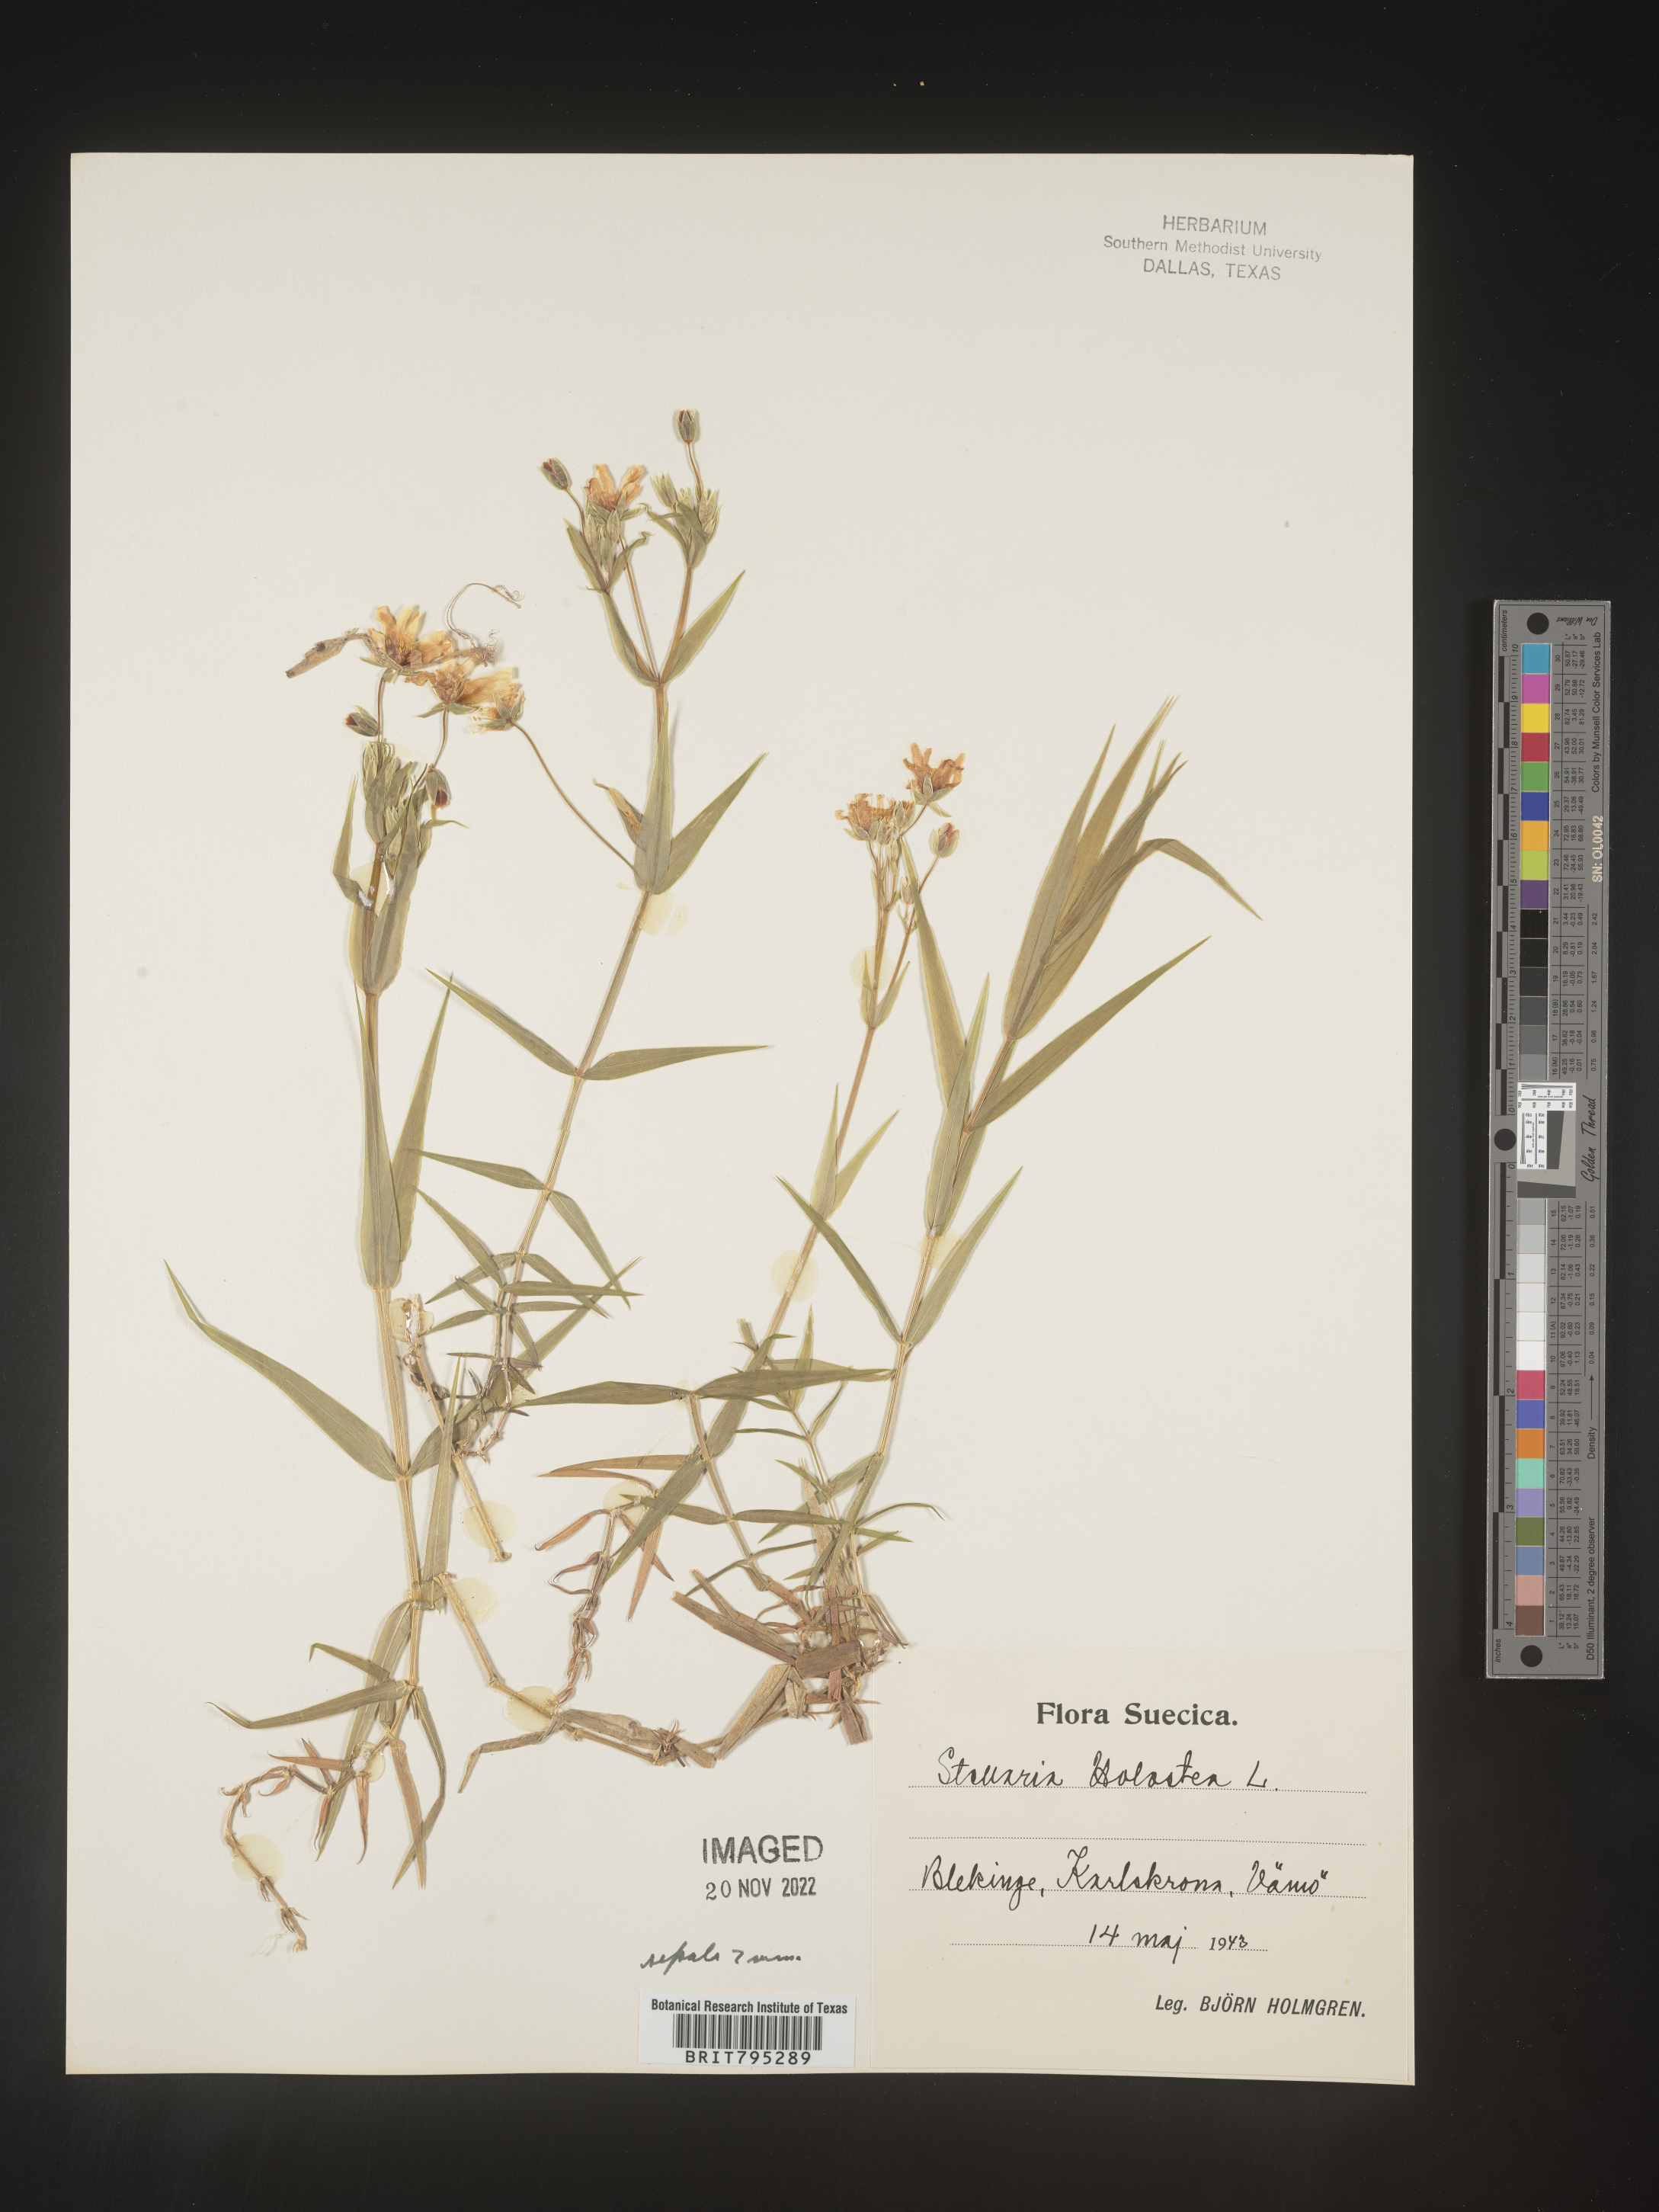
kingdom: Plantae
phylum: Tracheophyta
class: Magnoliopsida
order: Caryophyllales
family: Caryophyllaceae
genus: Stellaria
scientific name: Stellaria
